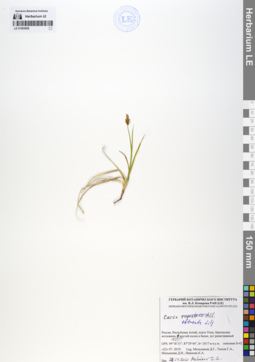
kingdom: Plantae
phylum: Tracheophyta
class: Liliopsida
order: Poales
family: Cyperaceae
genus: Carex
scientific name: Carex obtusata
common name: Blunt sedge
